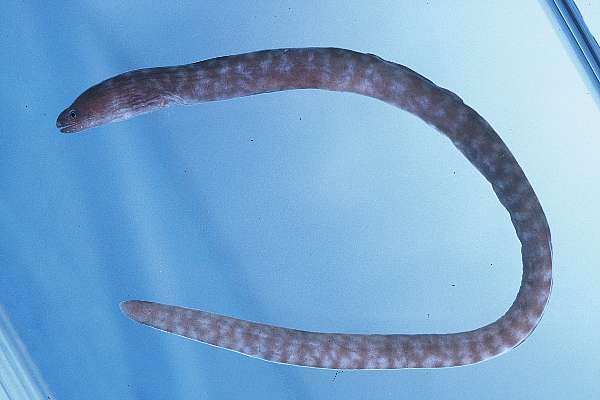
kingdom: Animalia
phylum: Chordata
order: Anguilliformes
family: Muraenidae
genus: Uropterygius
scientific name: Uropterygius
